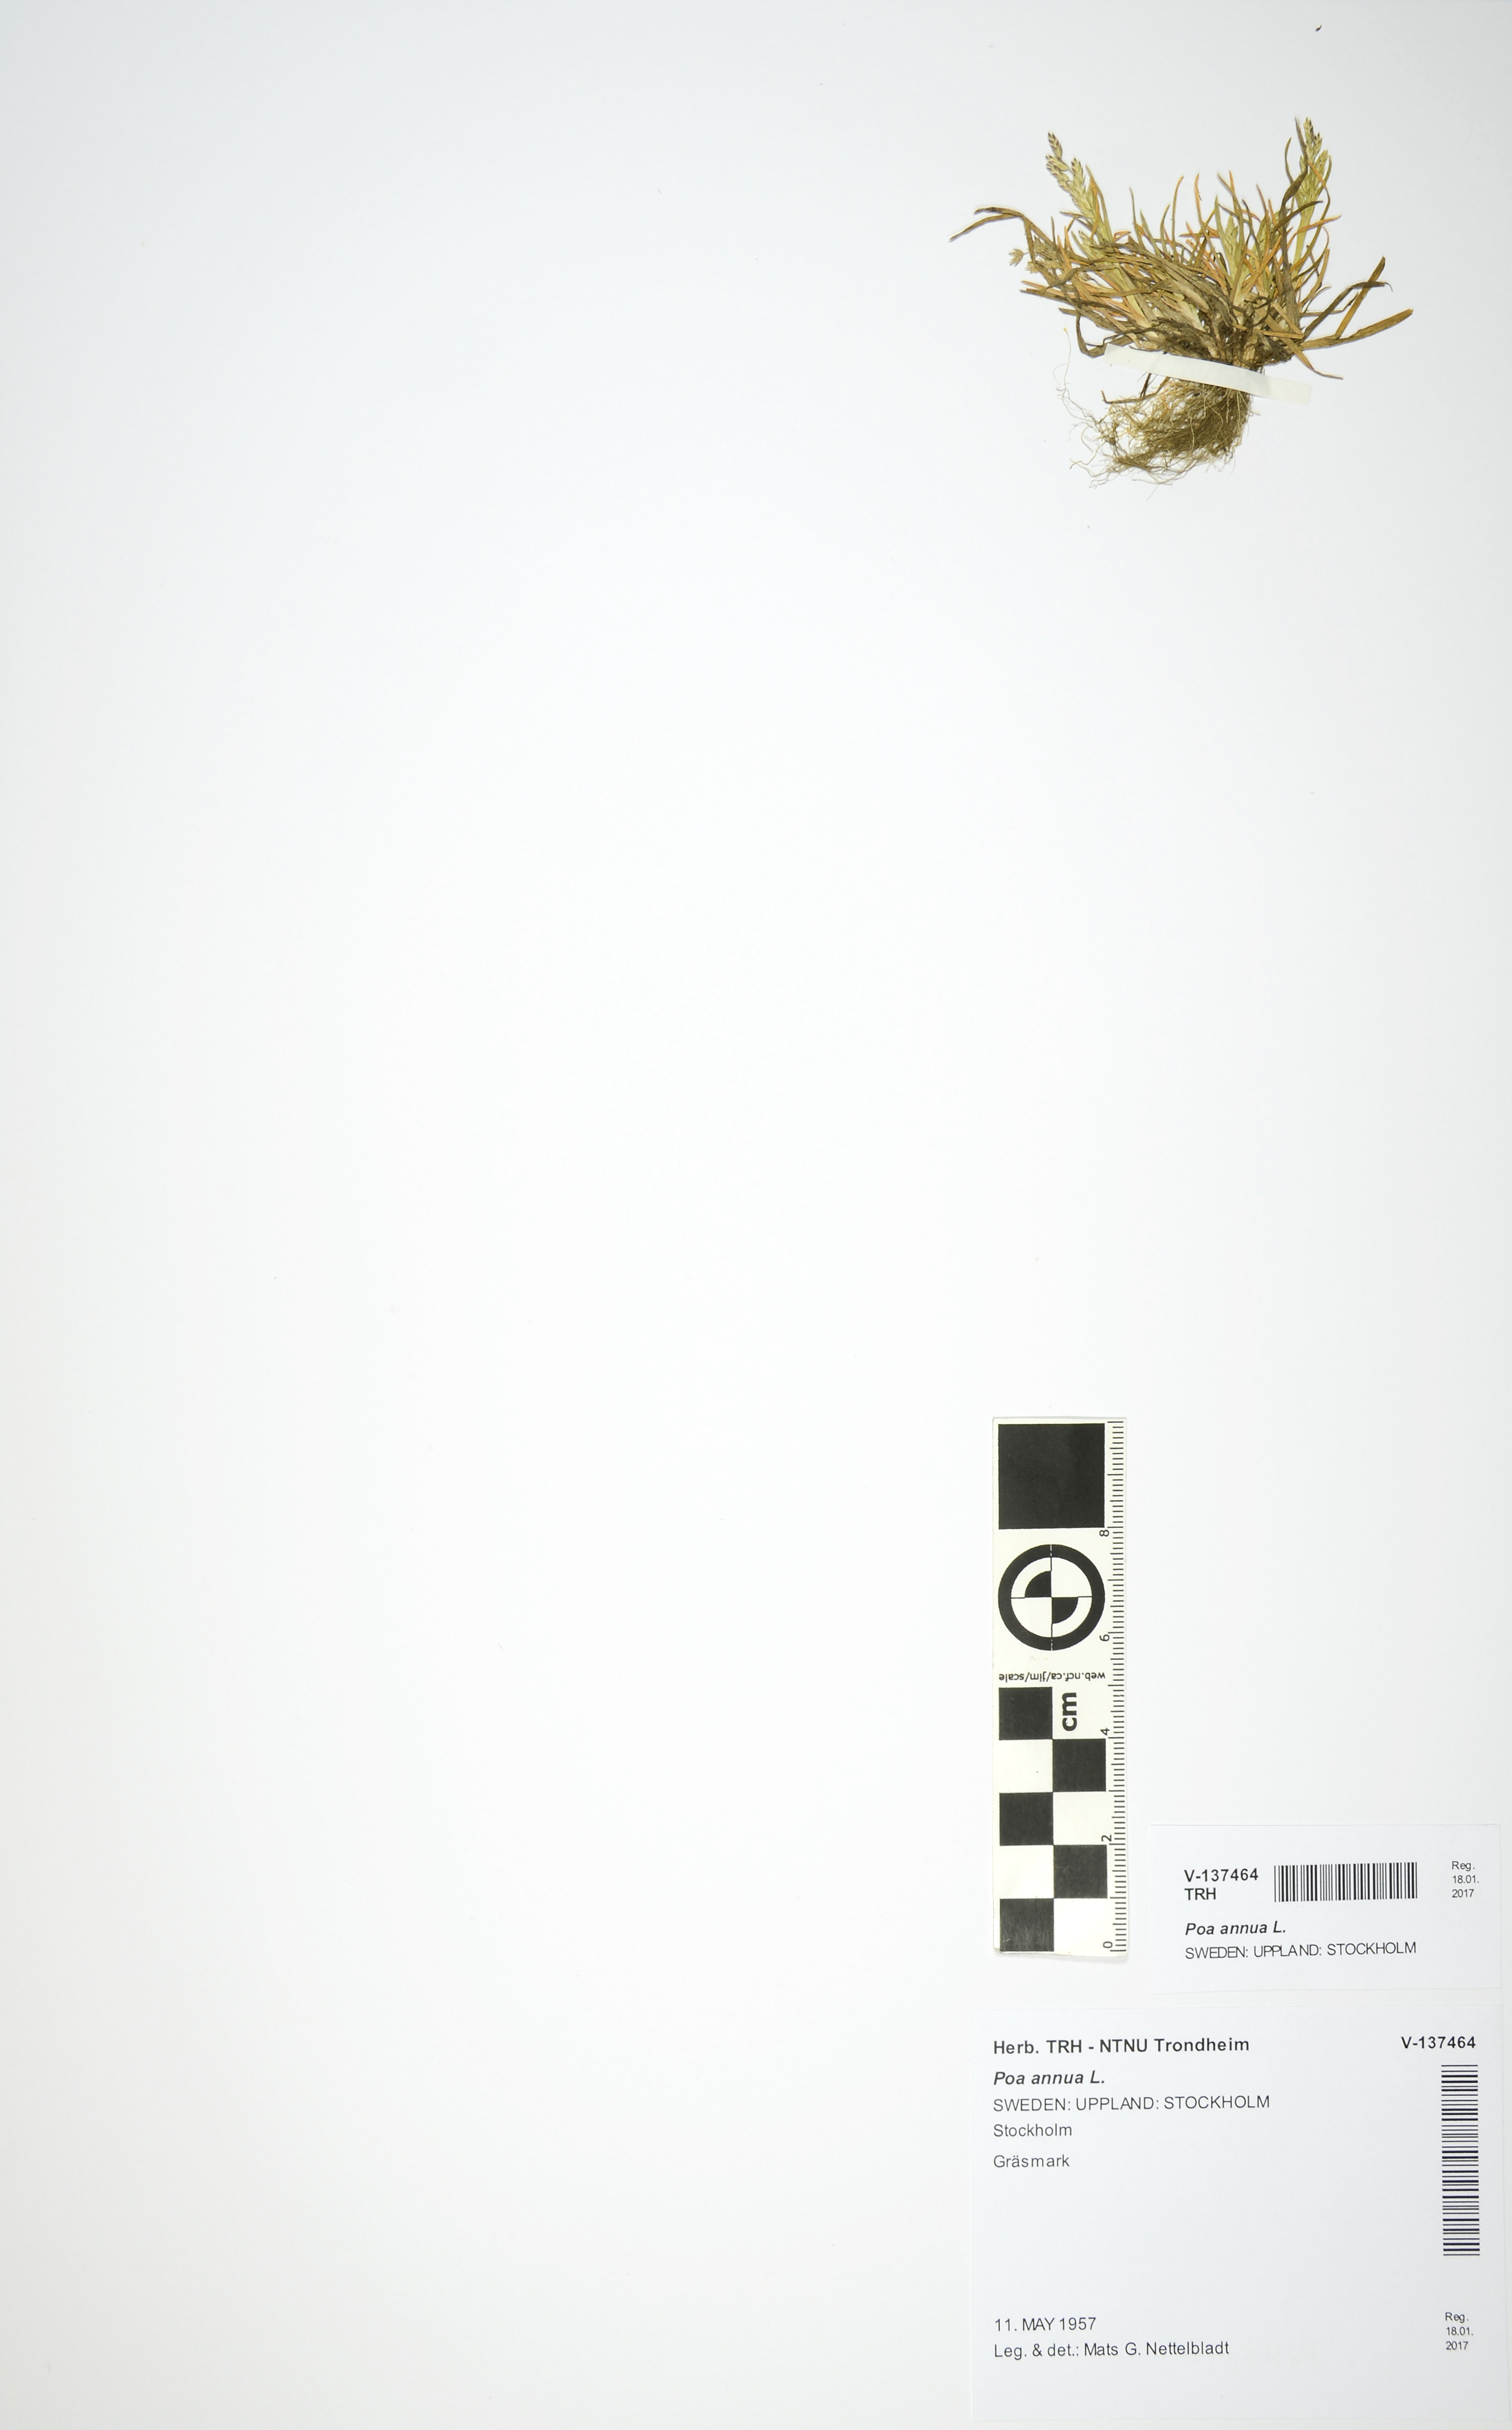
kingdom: Plantae
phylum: Tracheophyta
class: Liliopsida
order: Poales
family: Poaceae
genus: Poa
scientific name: Poa annua
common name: Annual bluegrass
